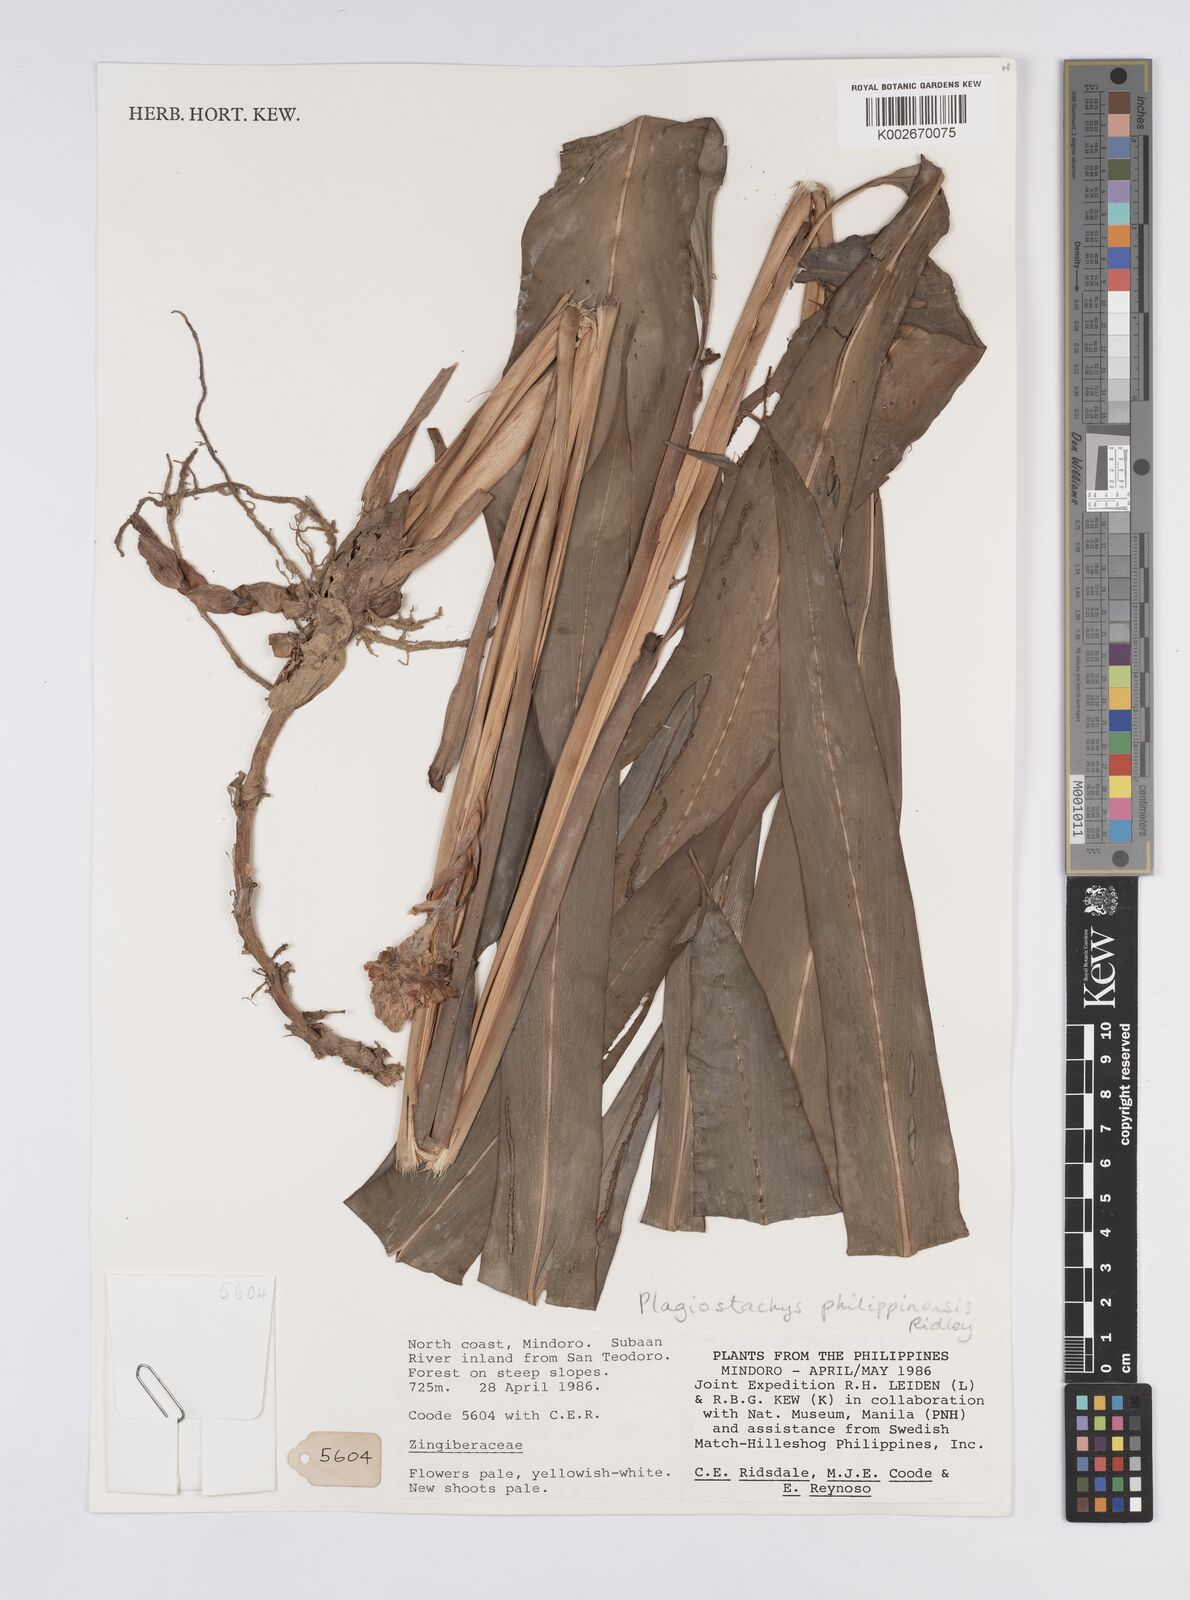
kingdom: Plantae
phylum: Tracheophyta
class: Liliopsida
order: Zingiberales
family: Zingiberaceae
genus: Plagiostachys
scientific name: Plagiostachys philippinensis
